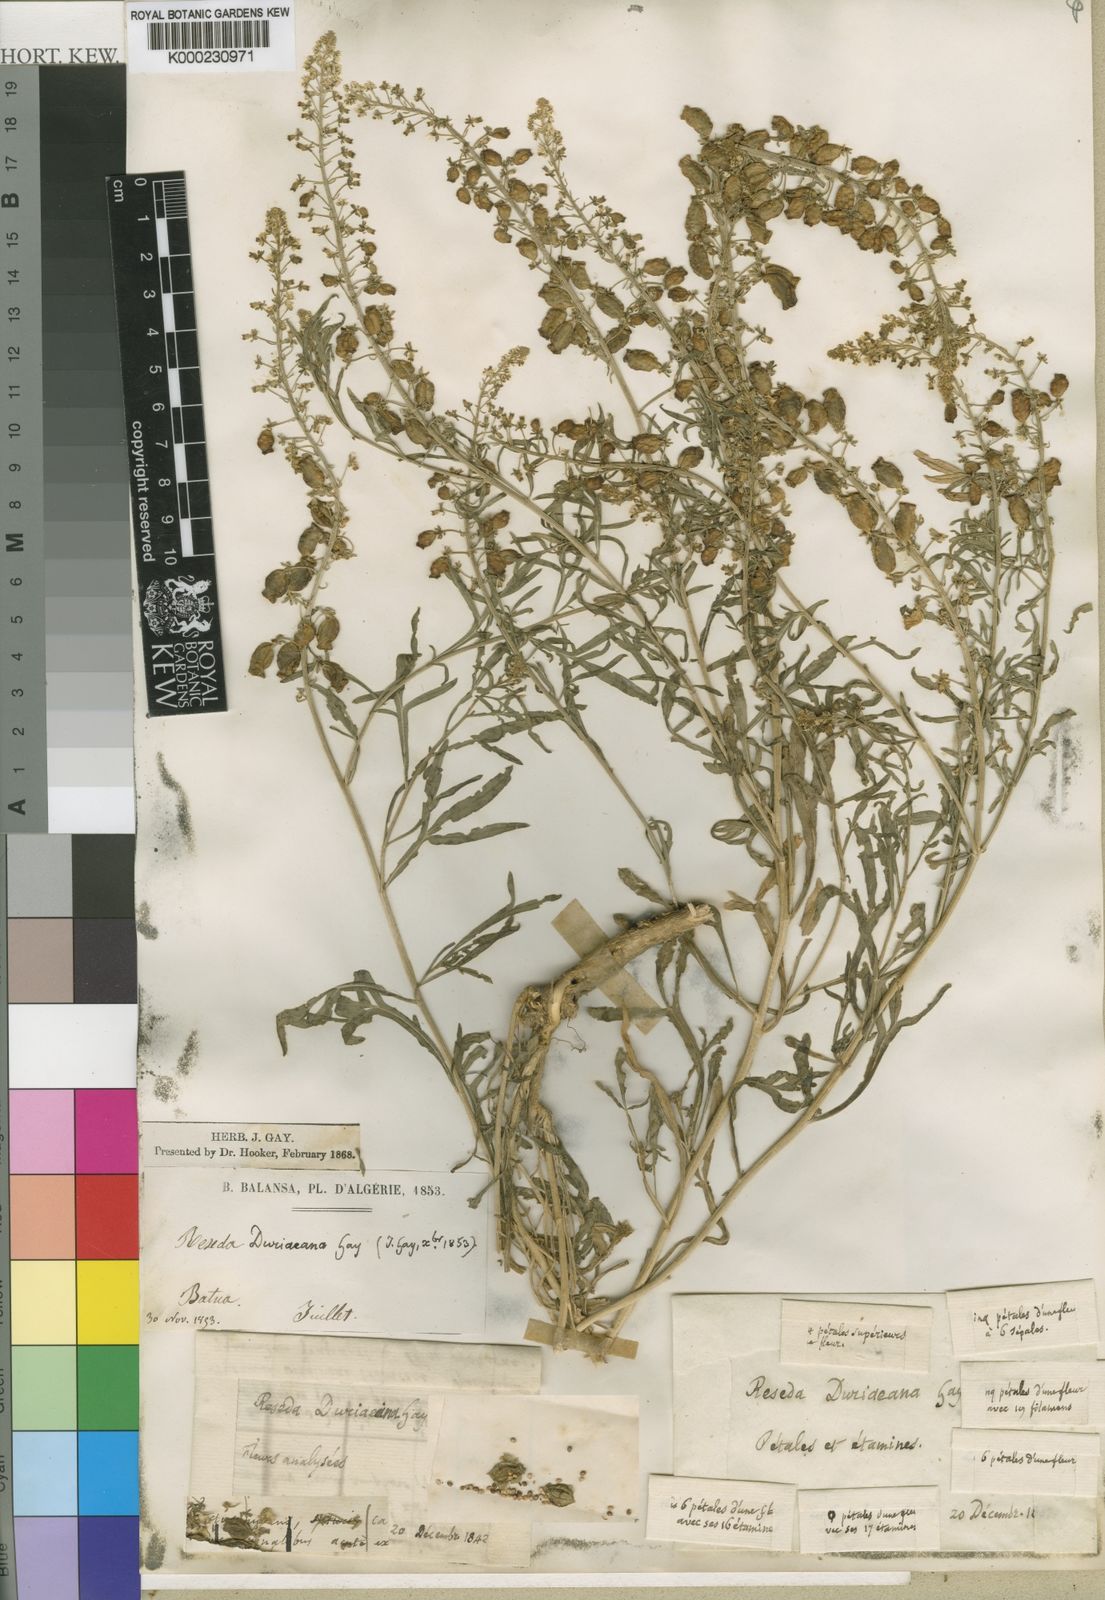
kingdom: Plantae
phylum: Tracheophyta
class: Magnoliopsida
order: Brassicales
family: Resedaceae
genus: Reseda
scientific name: Reseda duriaeana
